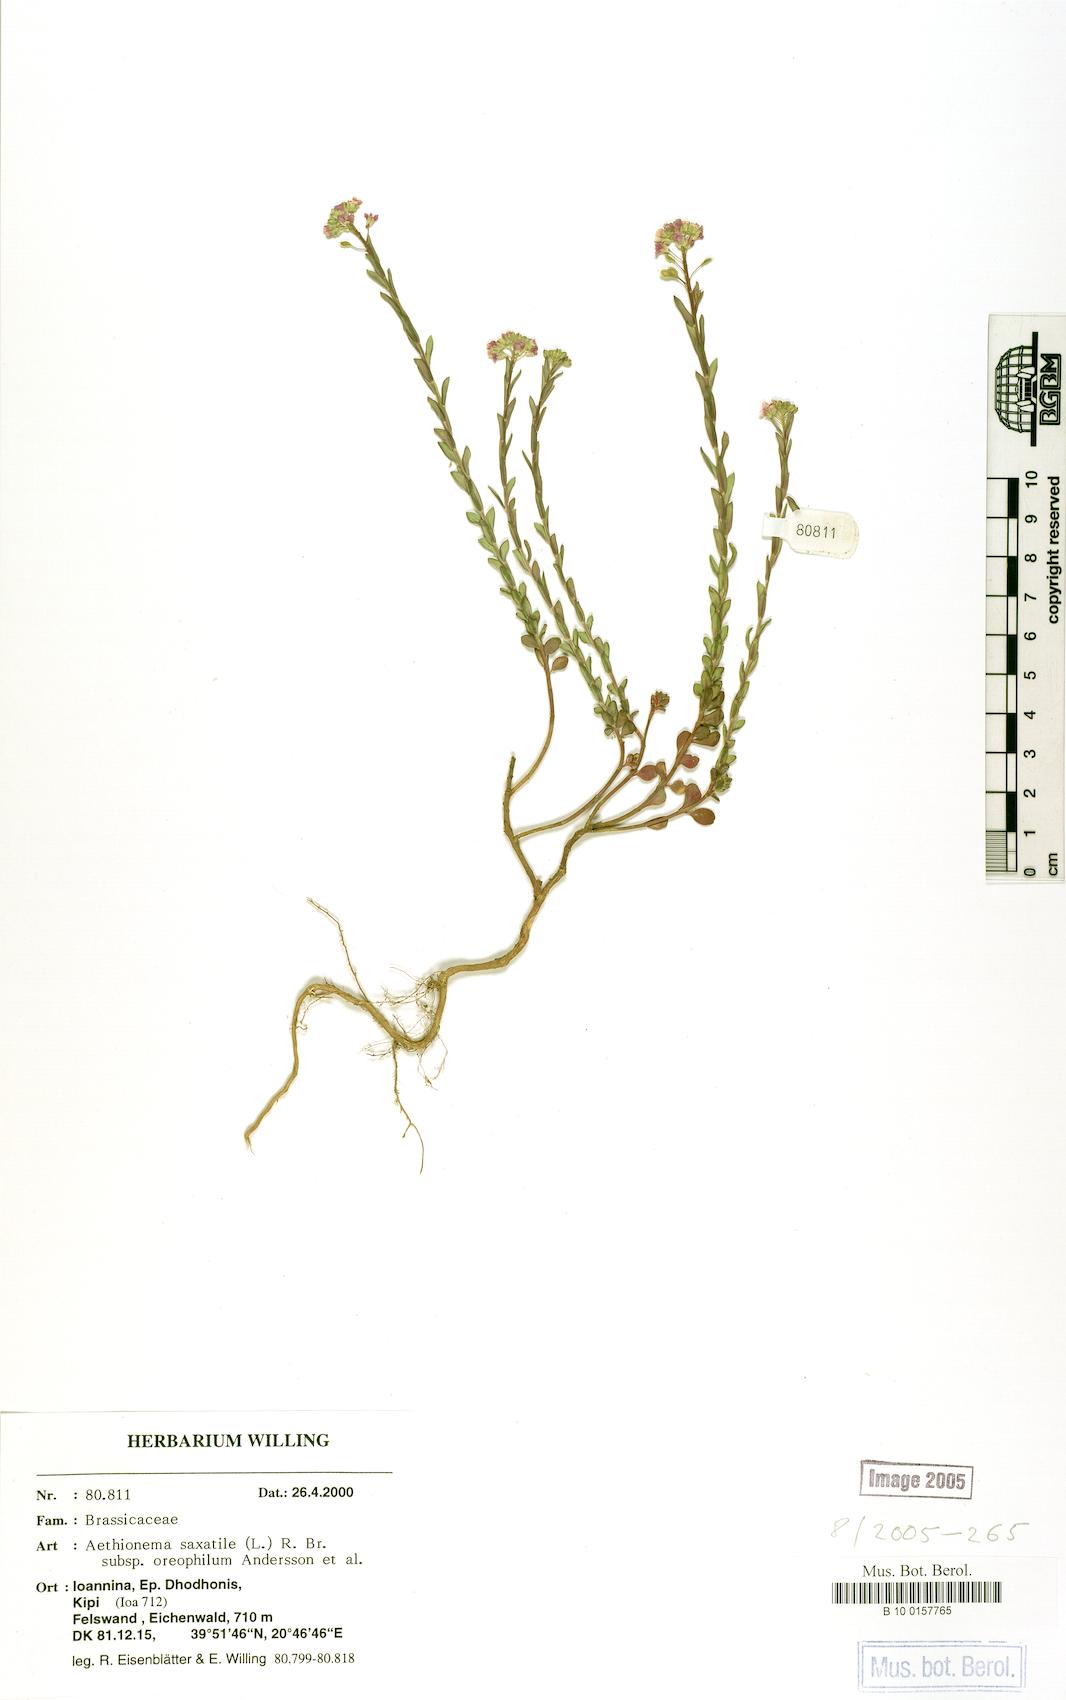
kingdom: Plantae
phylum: Tracheophyta
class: Magnoliopsida
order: Brassicales
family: Brassicaceae
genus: Aethionema
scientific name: Aethionema saxatile
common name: Burnt candytuft
